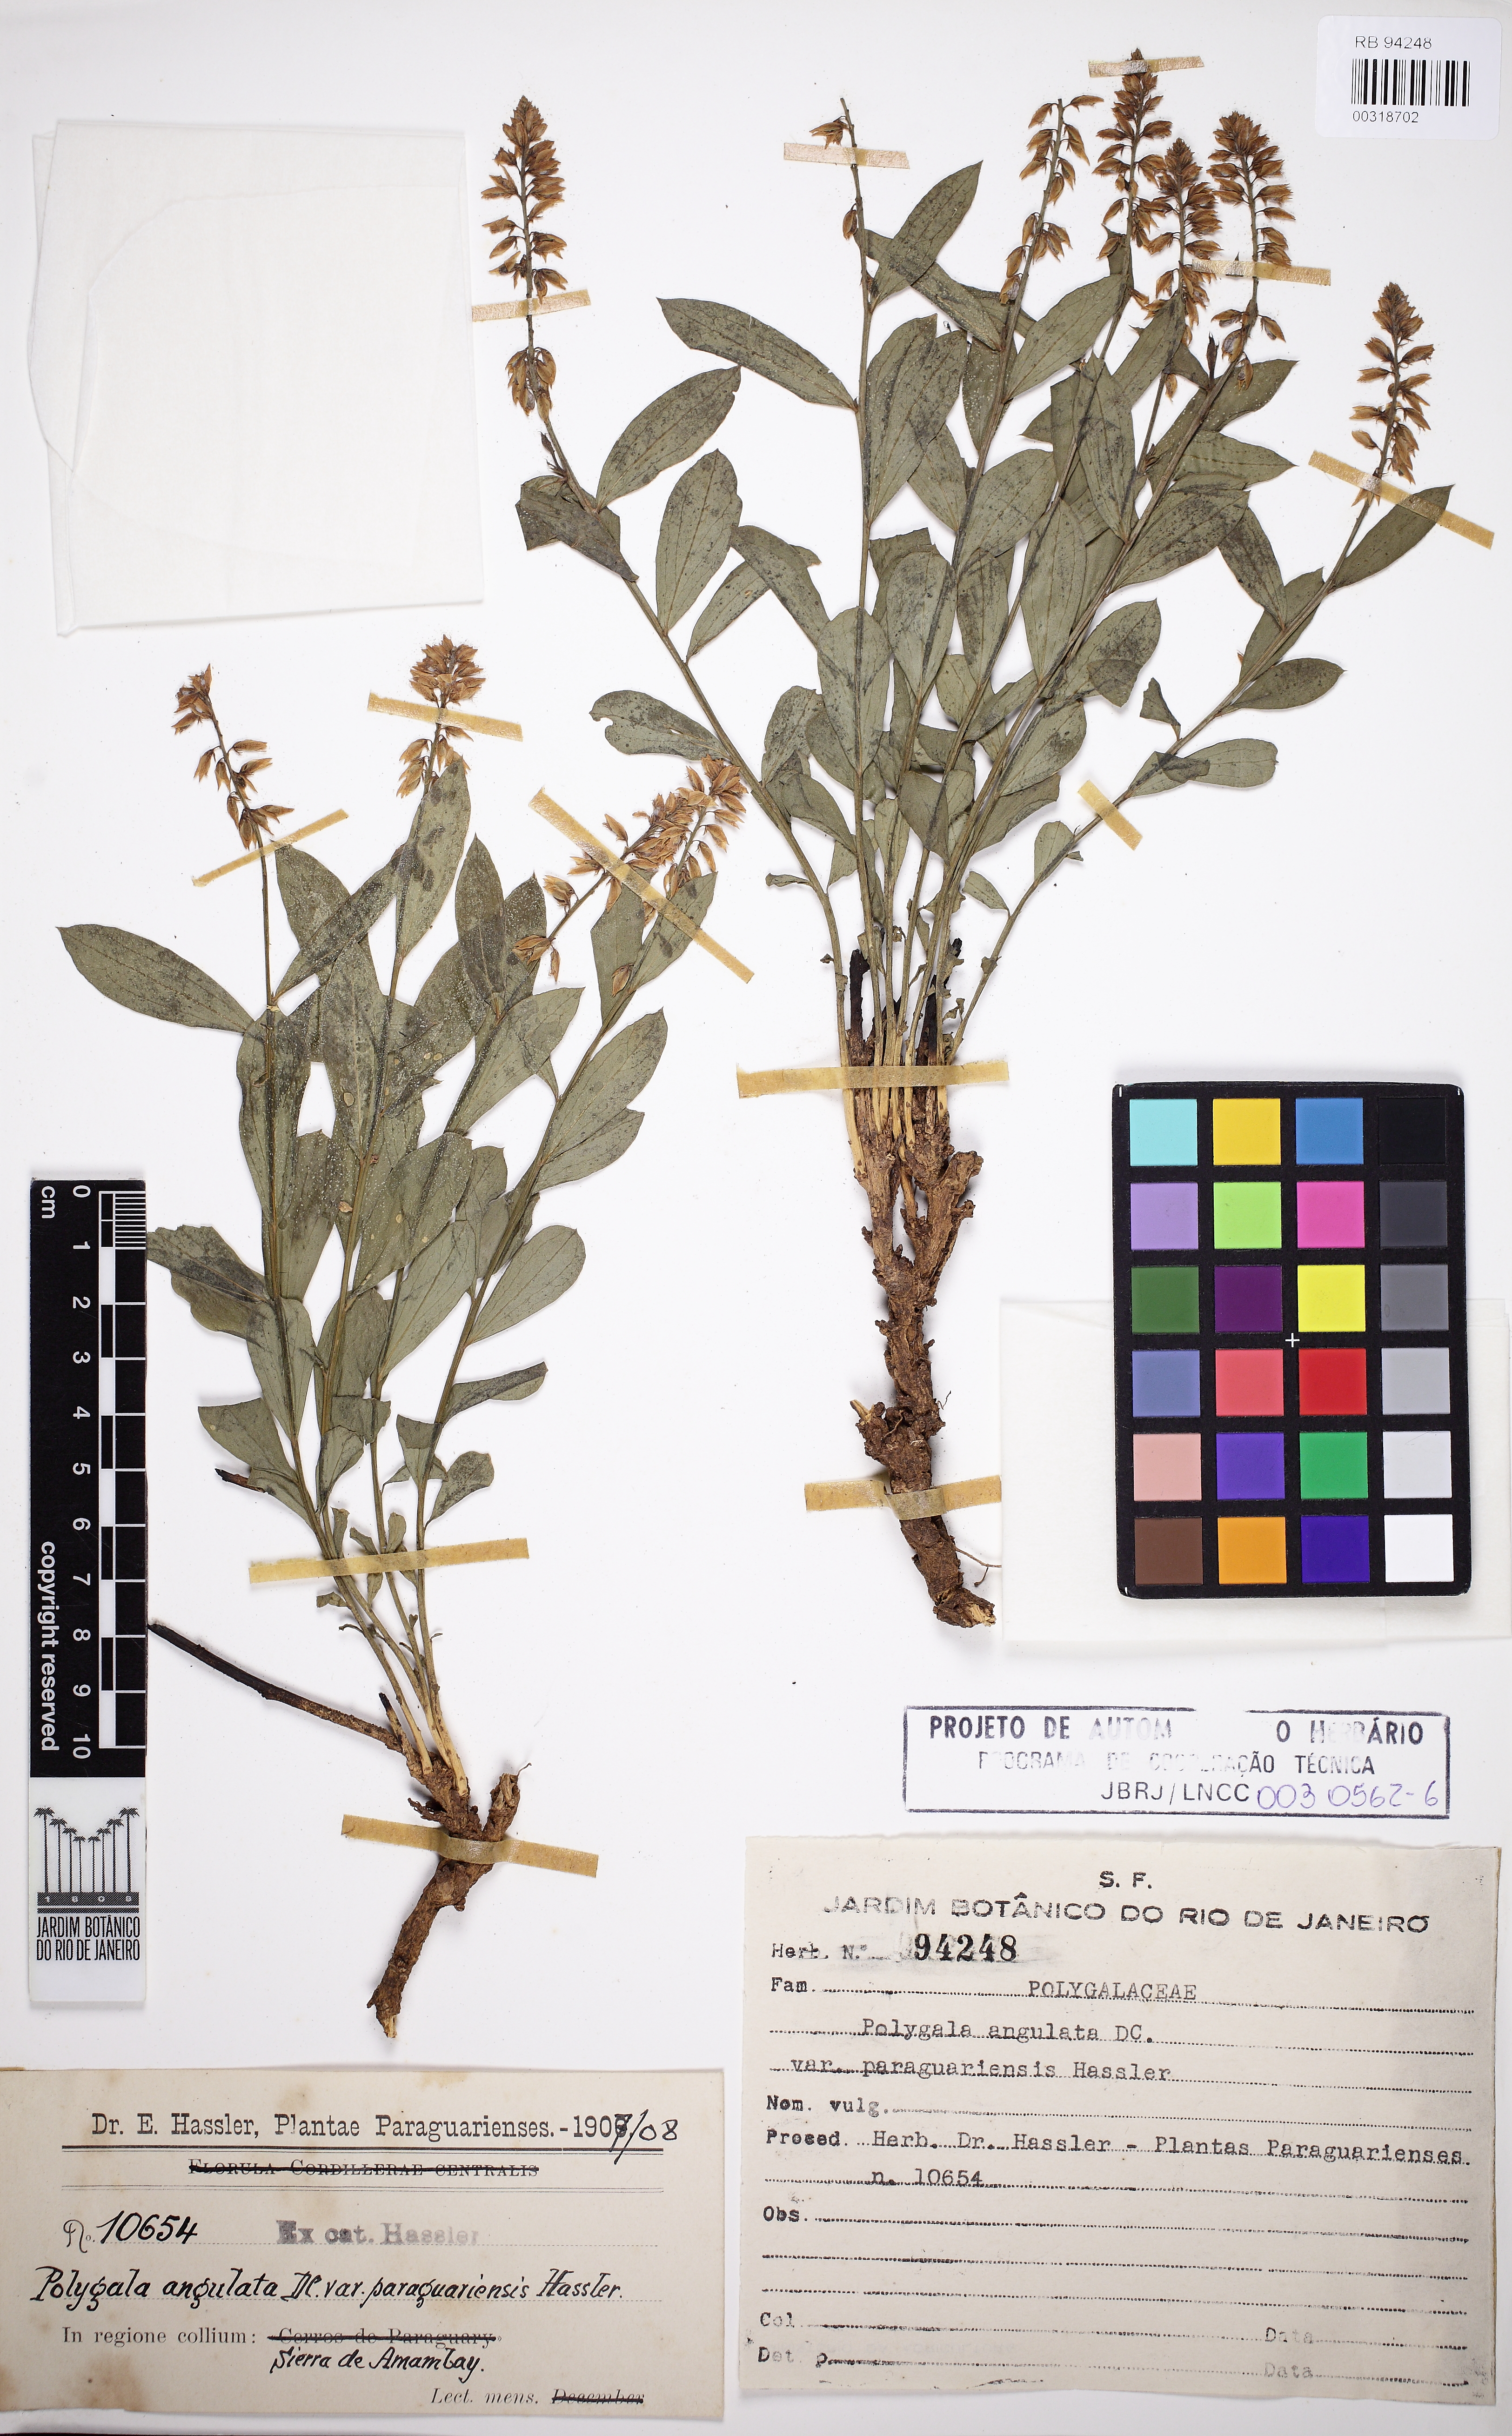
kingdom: Plantae
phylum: Tracheophyta
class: Magnoliopsida
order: Fabales
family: Polygalaceae
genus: Polygala
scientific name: Polygala poaya
